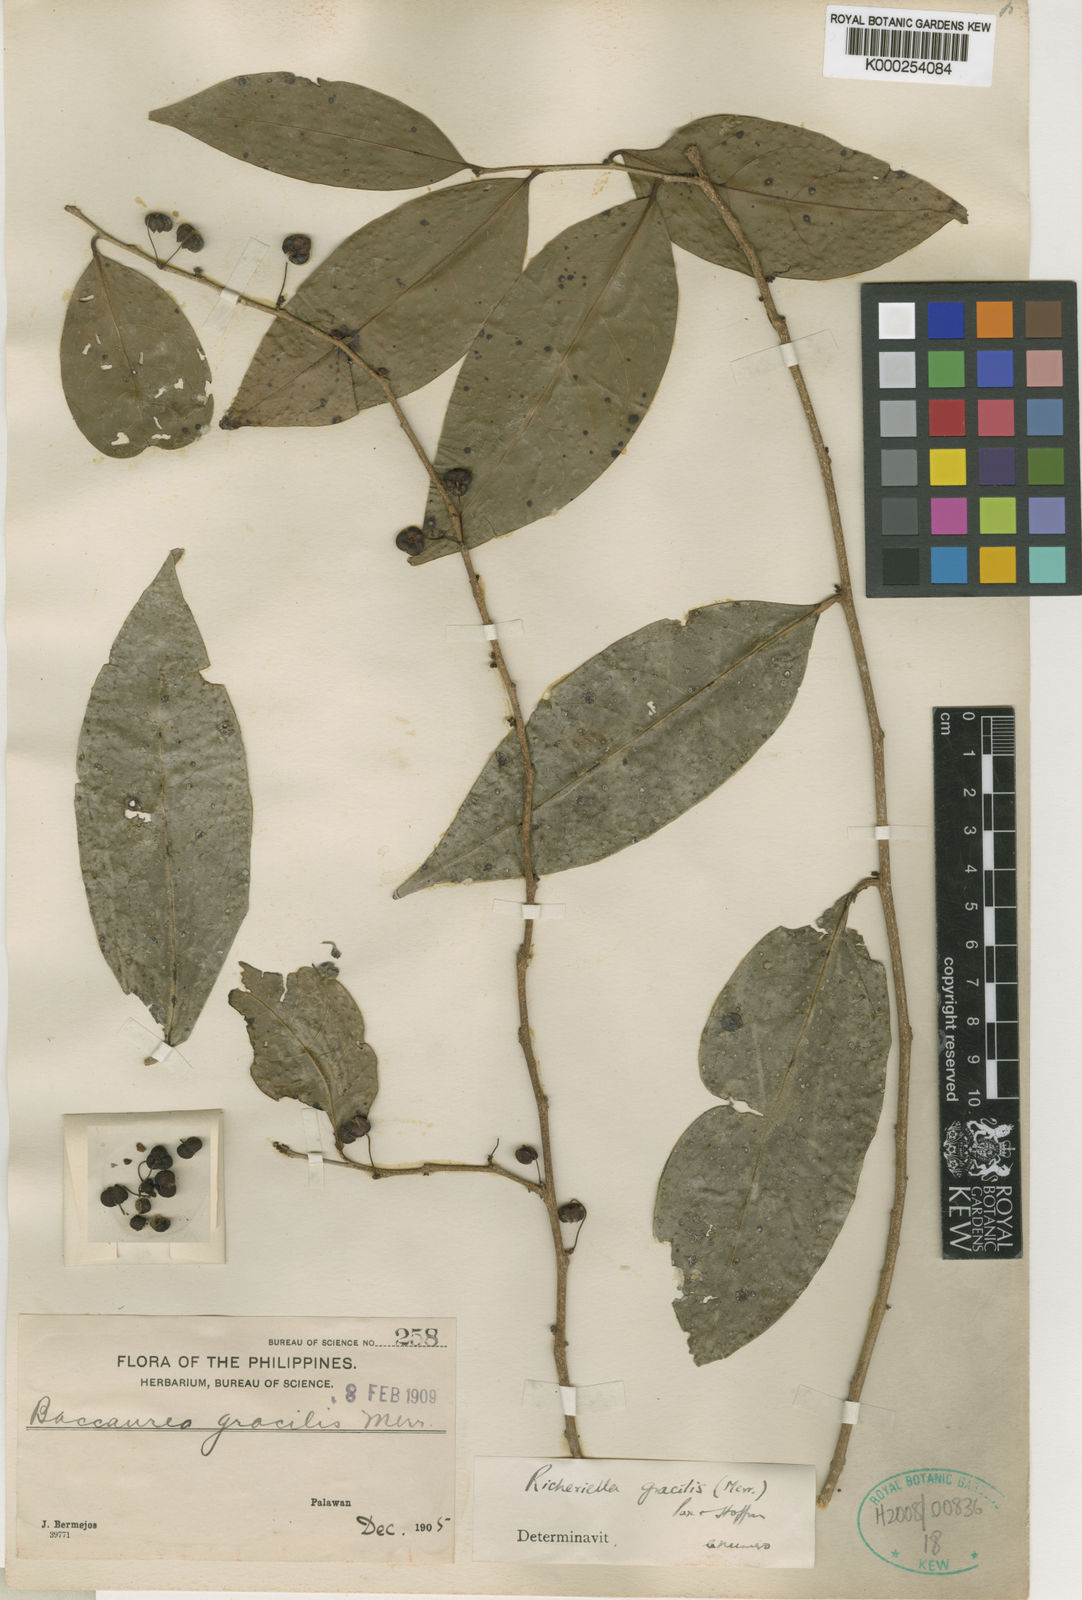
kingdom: Plantae
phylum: Tracheophyta
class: Magnoliopsida
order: Malpighiales
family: Phyllanthaceae
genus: Flueggea
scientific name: Flueggea gracilis
